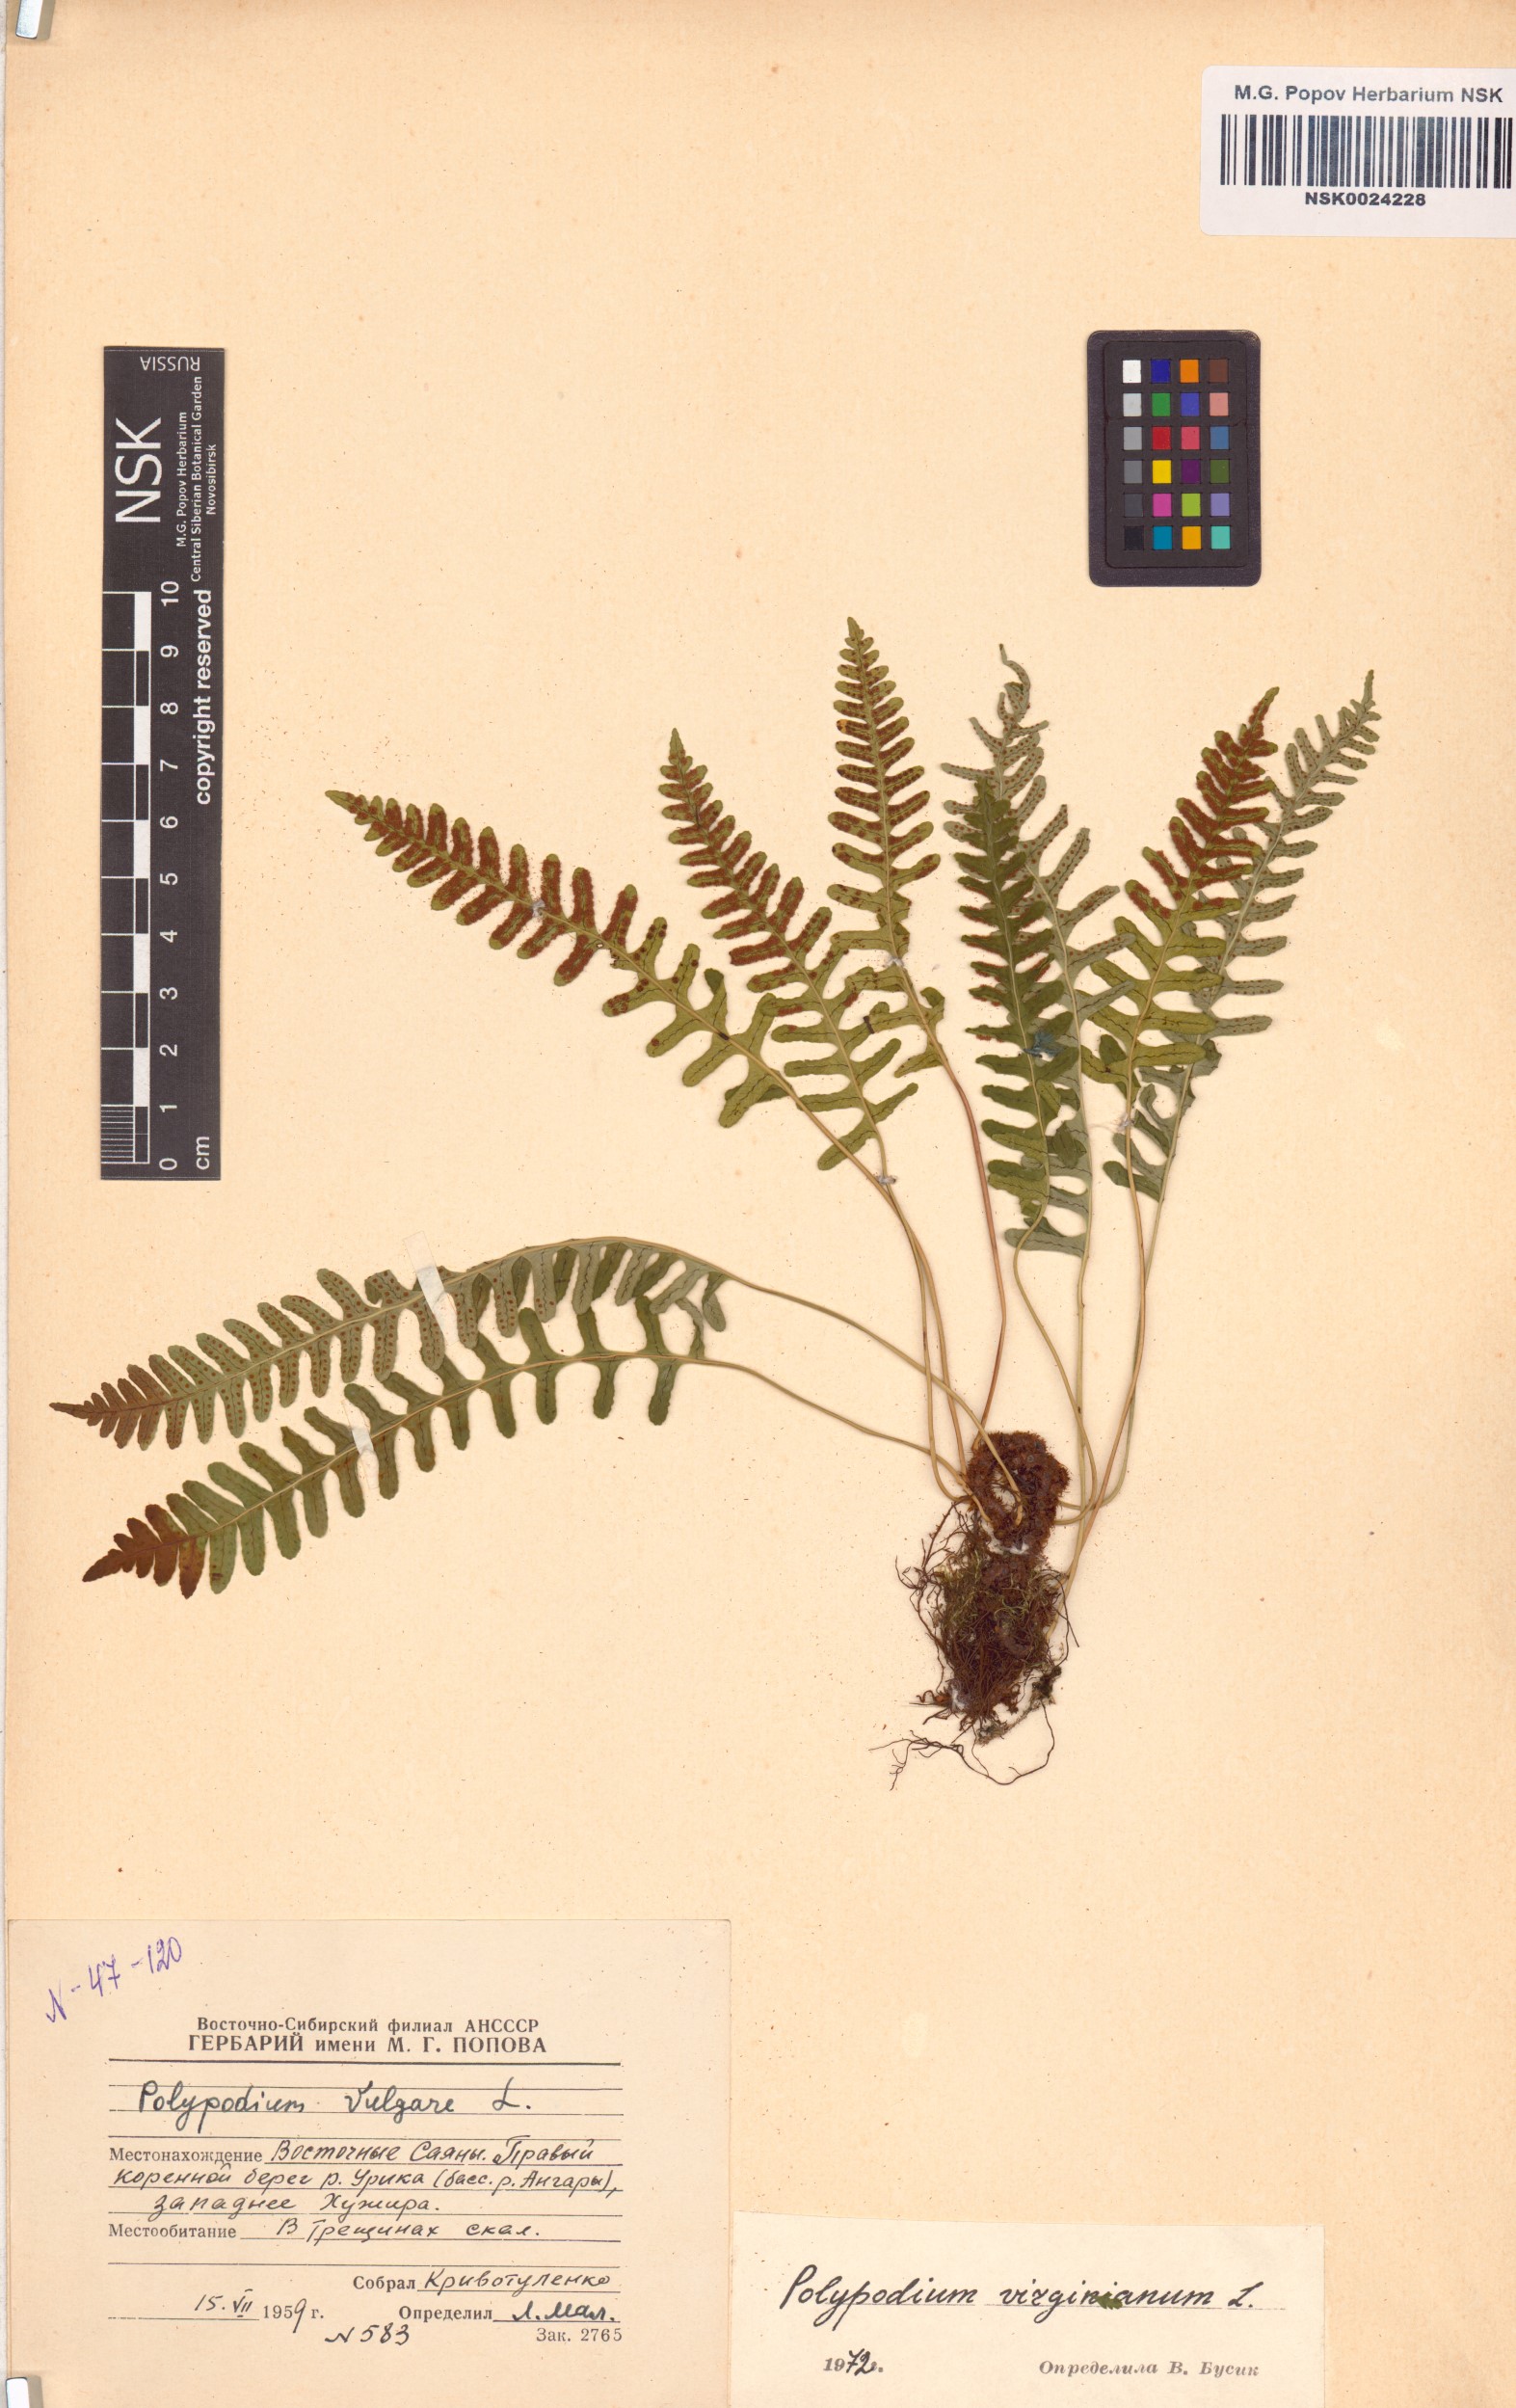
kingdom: Plantae
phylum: Tracheophyta
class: Polypodiopsida
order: Polypodiales
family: Polypodiaceae
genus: Polypodium
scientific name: Polypodium virginianum
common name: American wall fern
